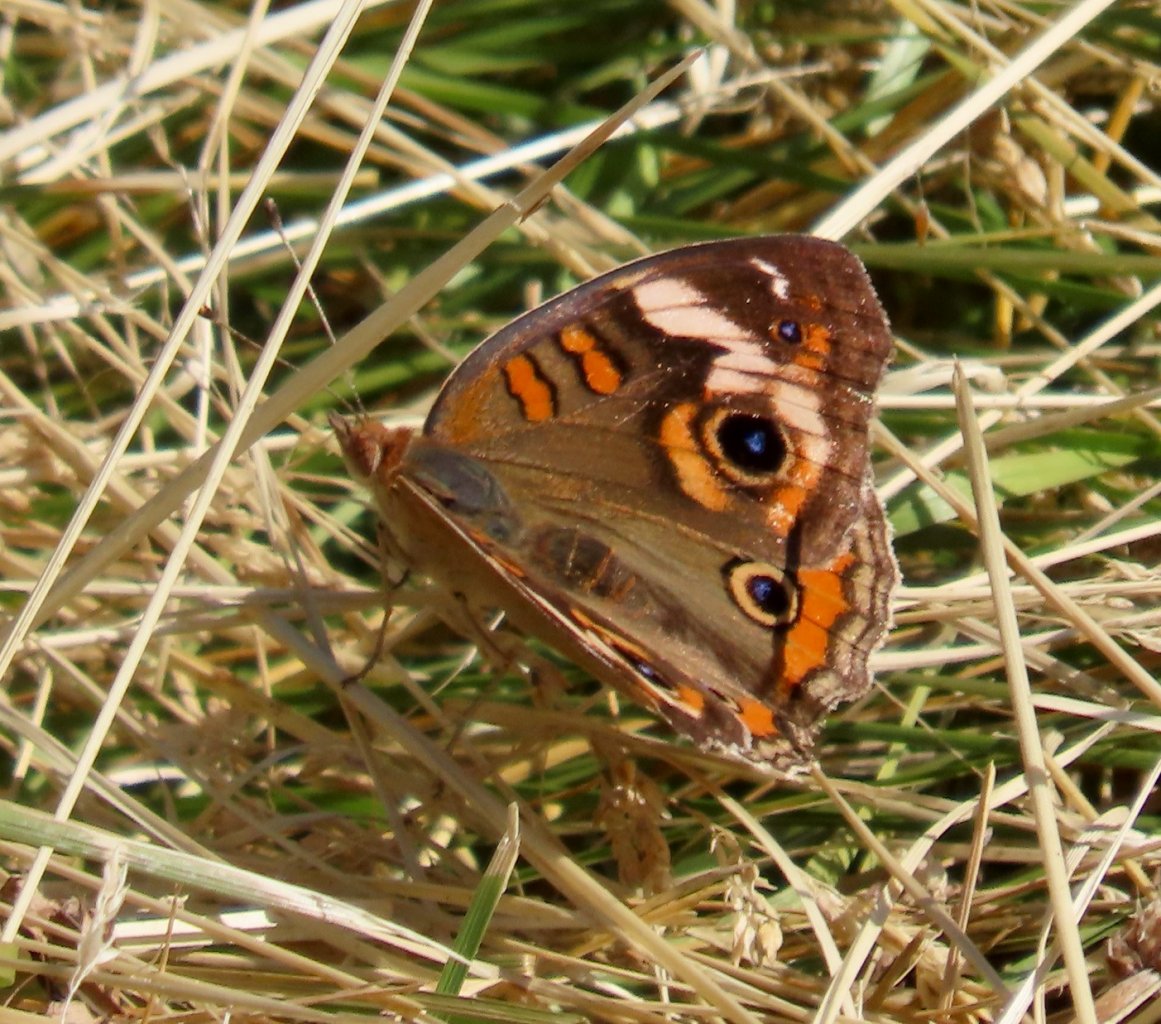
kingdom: Animalia
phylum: Arthropoda
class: Insecta
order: Lepidoptera
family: Nymphalidae
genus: Junonia
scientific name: Junonia coenia
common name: Common Buckeye
